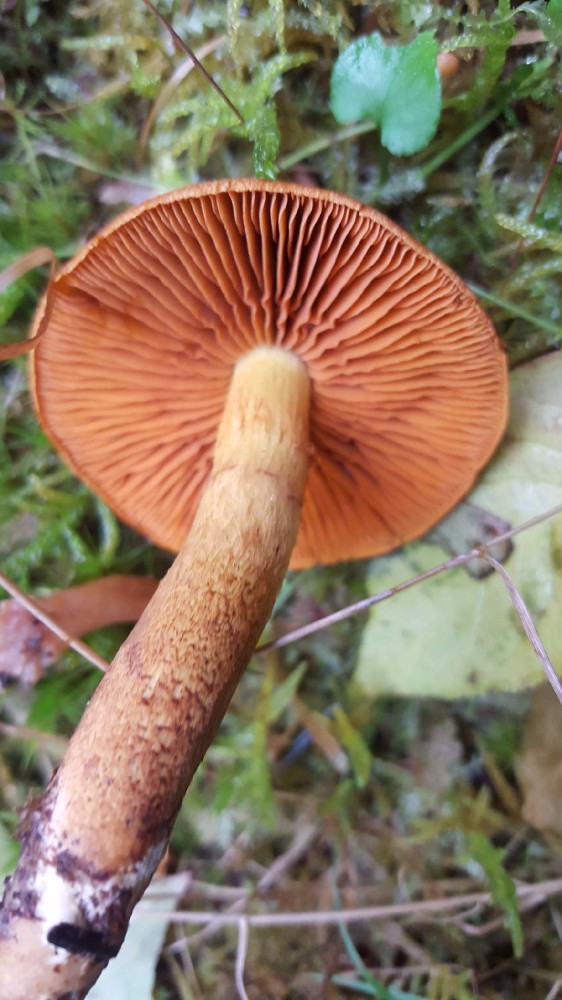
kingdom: Fungi
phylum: Basidiomycota
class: Agaricomycetes
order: Agaricales
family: Cortinariaceae
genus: Cortinarius
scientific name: Cortinarius cinnamomeus
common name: kanel-slørhat
